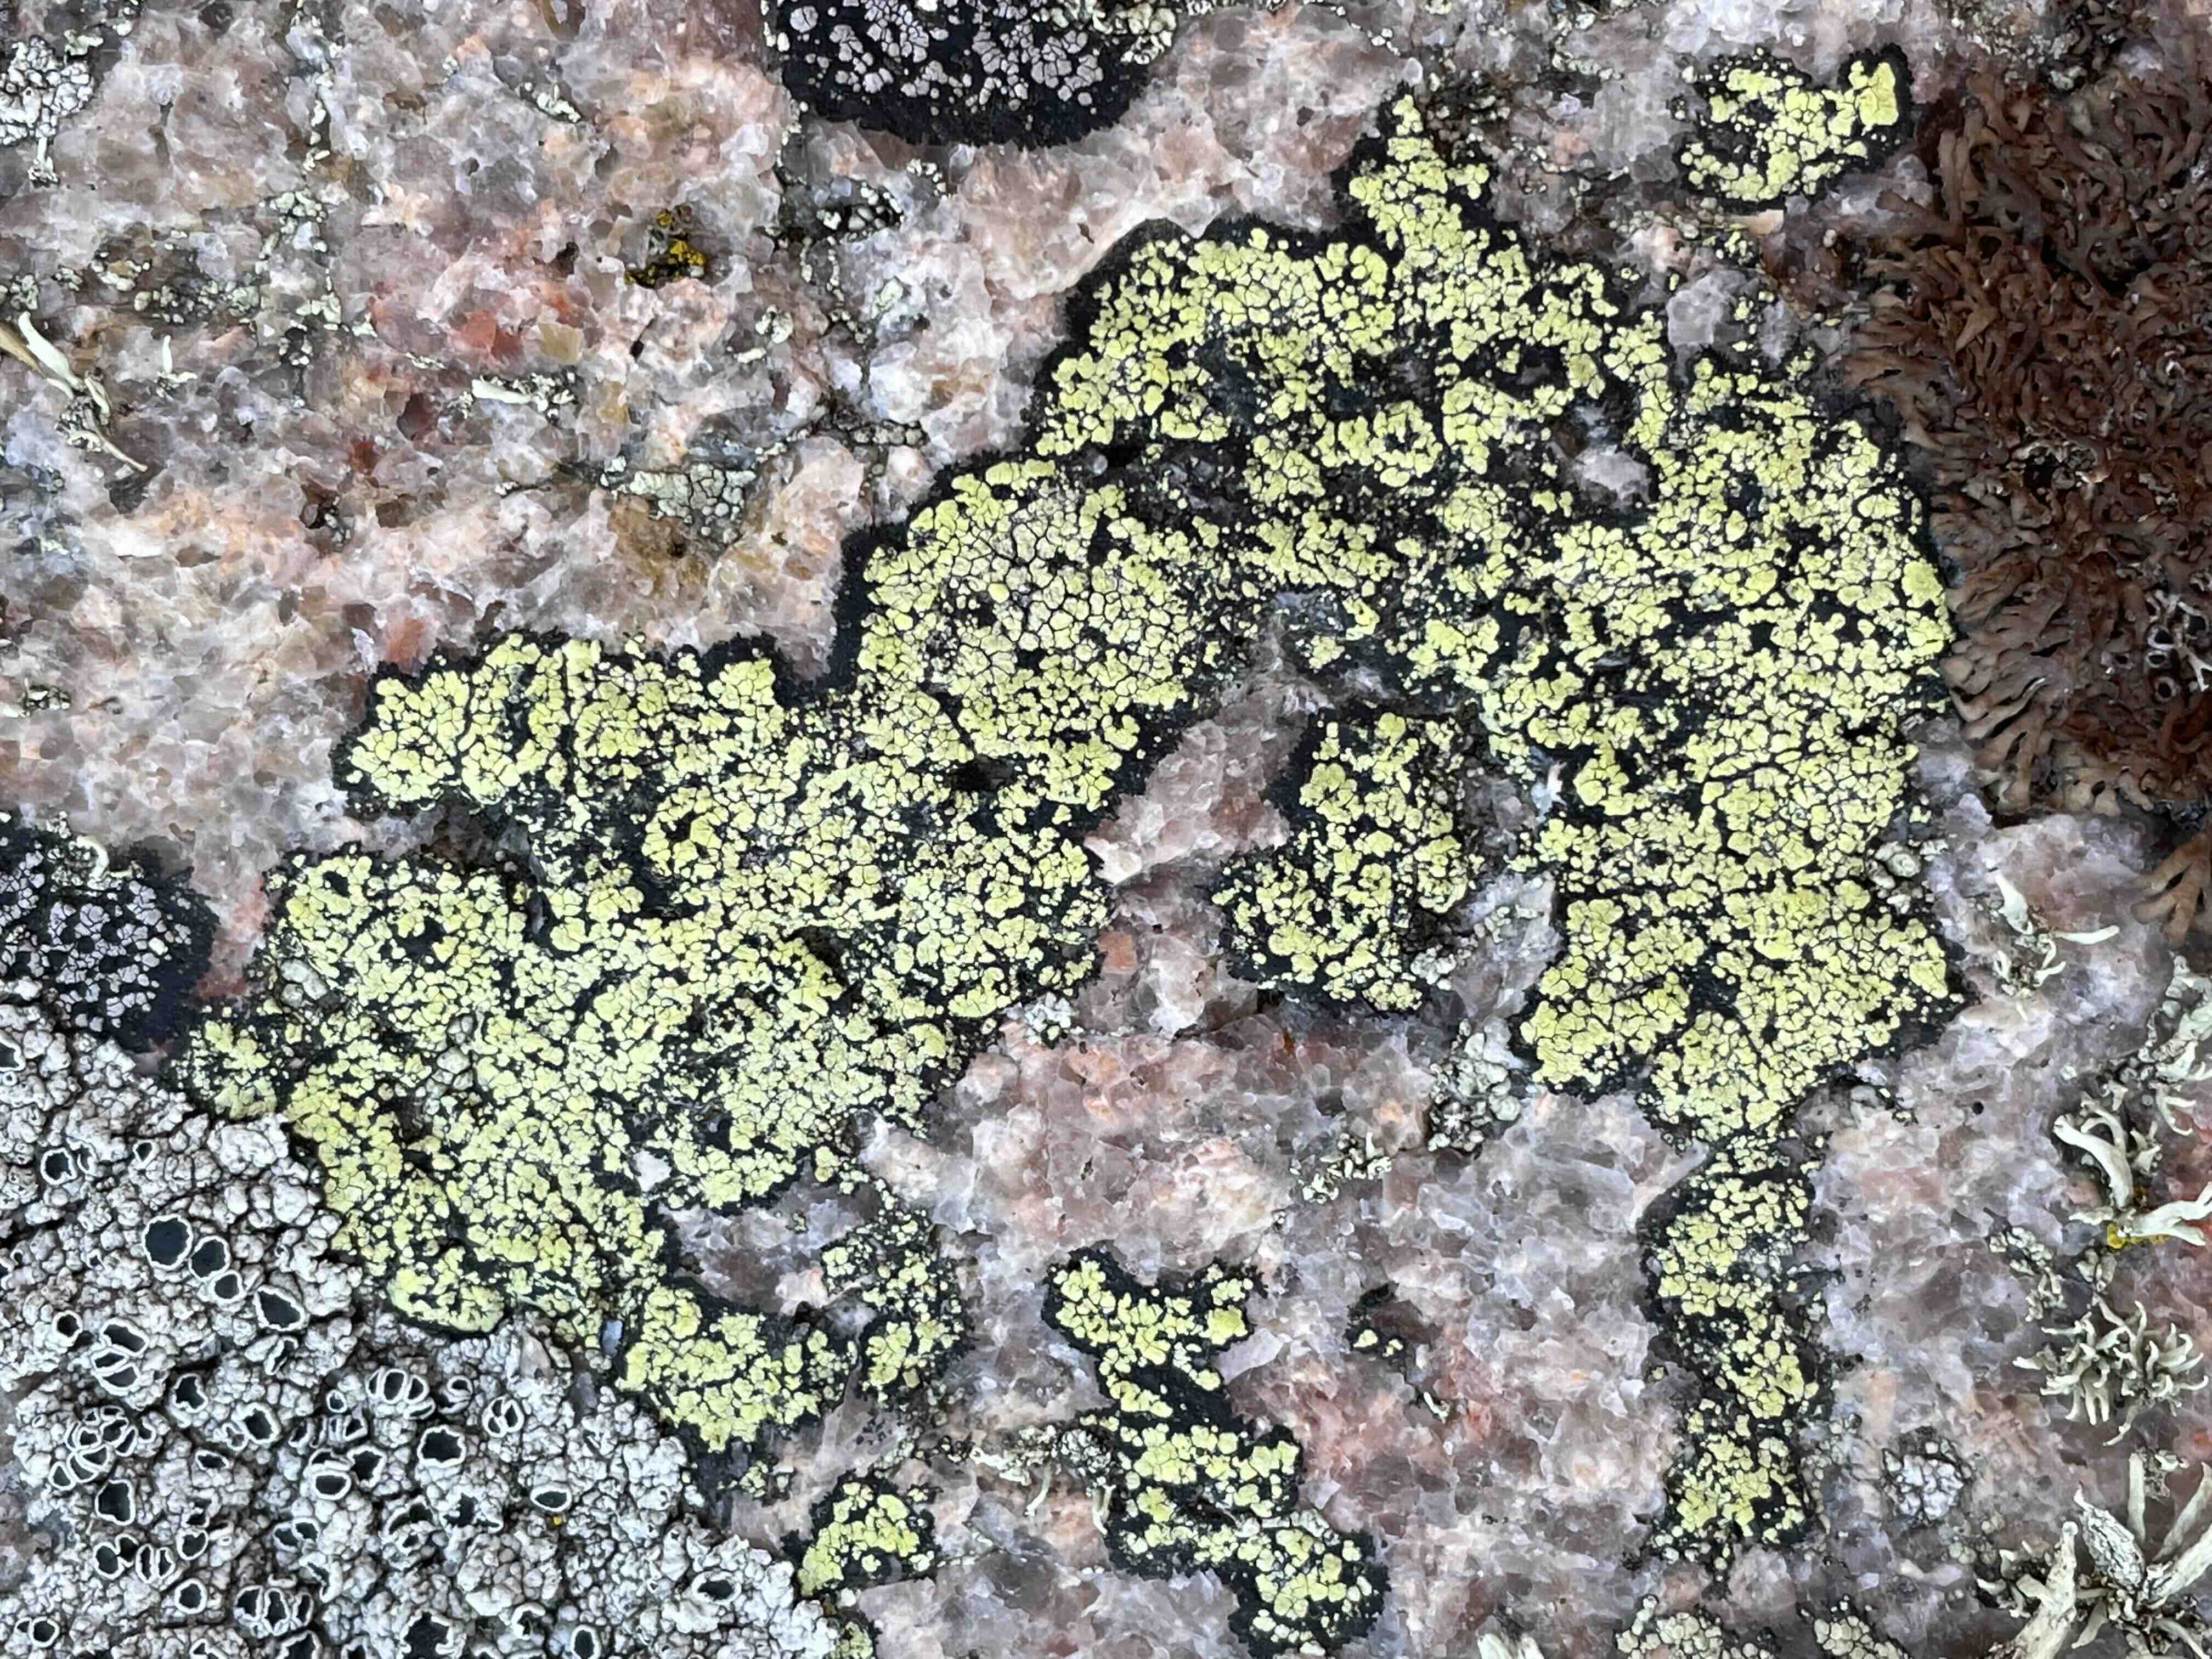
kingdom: Fungi
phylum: Ascomycota
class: Lecanoromycetes
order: Rhizocarpales
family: Rhizocarpaceae
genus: Rhizocarpon
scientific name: Rhizocarpon geographicum
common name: gulgrøn landkortlav
